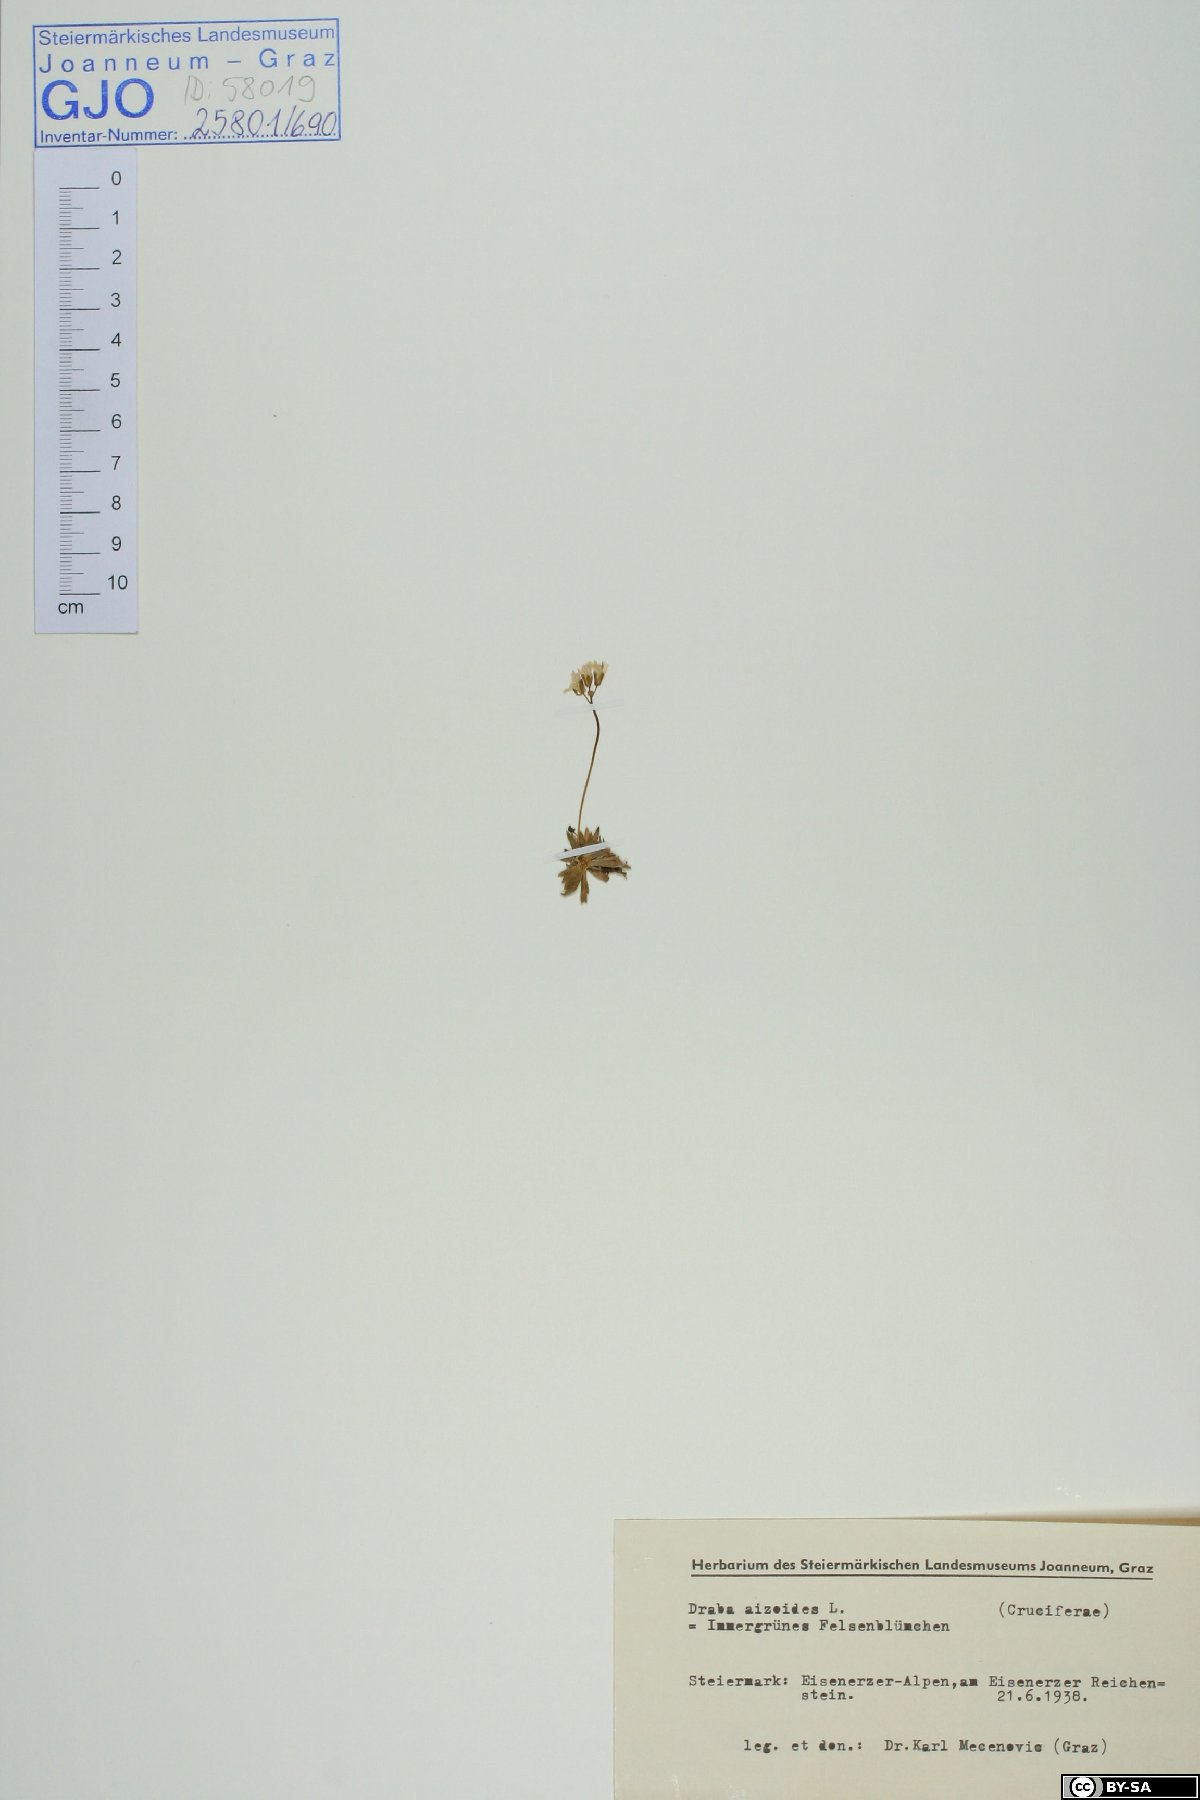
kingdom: Plantae
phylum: Tracheophyta
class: Magnoliopsida
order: Brassicales
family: Brassicaceae
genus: Draba
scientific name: Draba aizoides
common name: Yellow whitlowgrass
